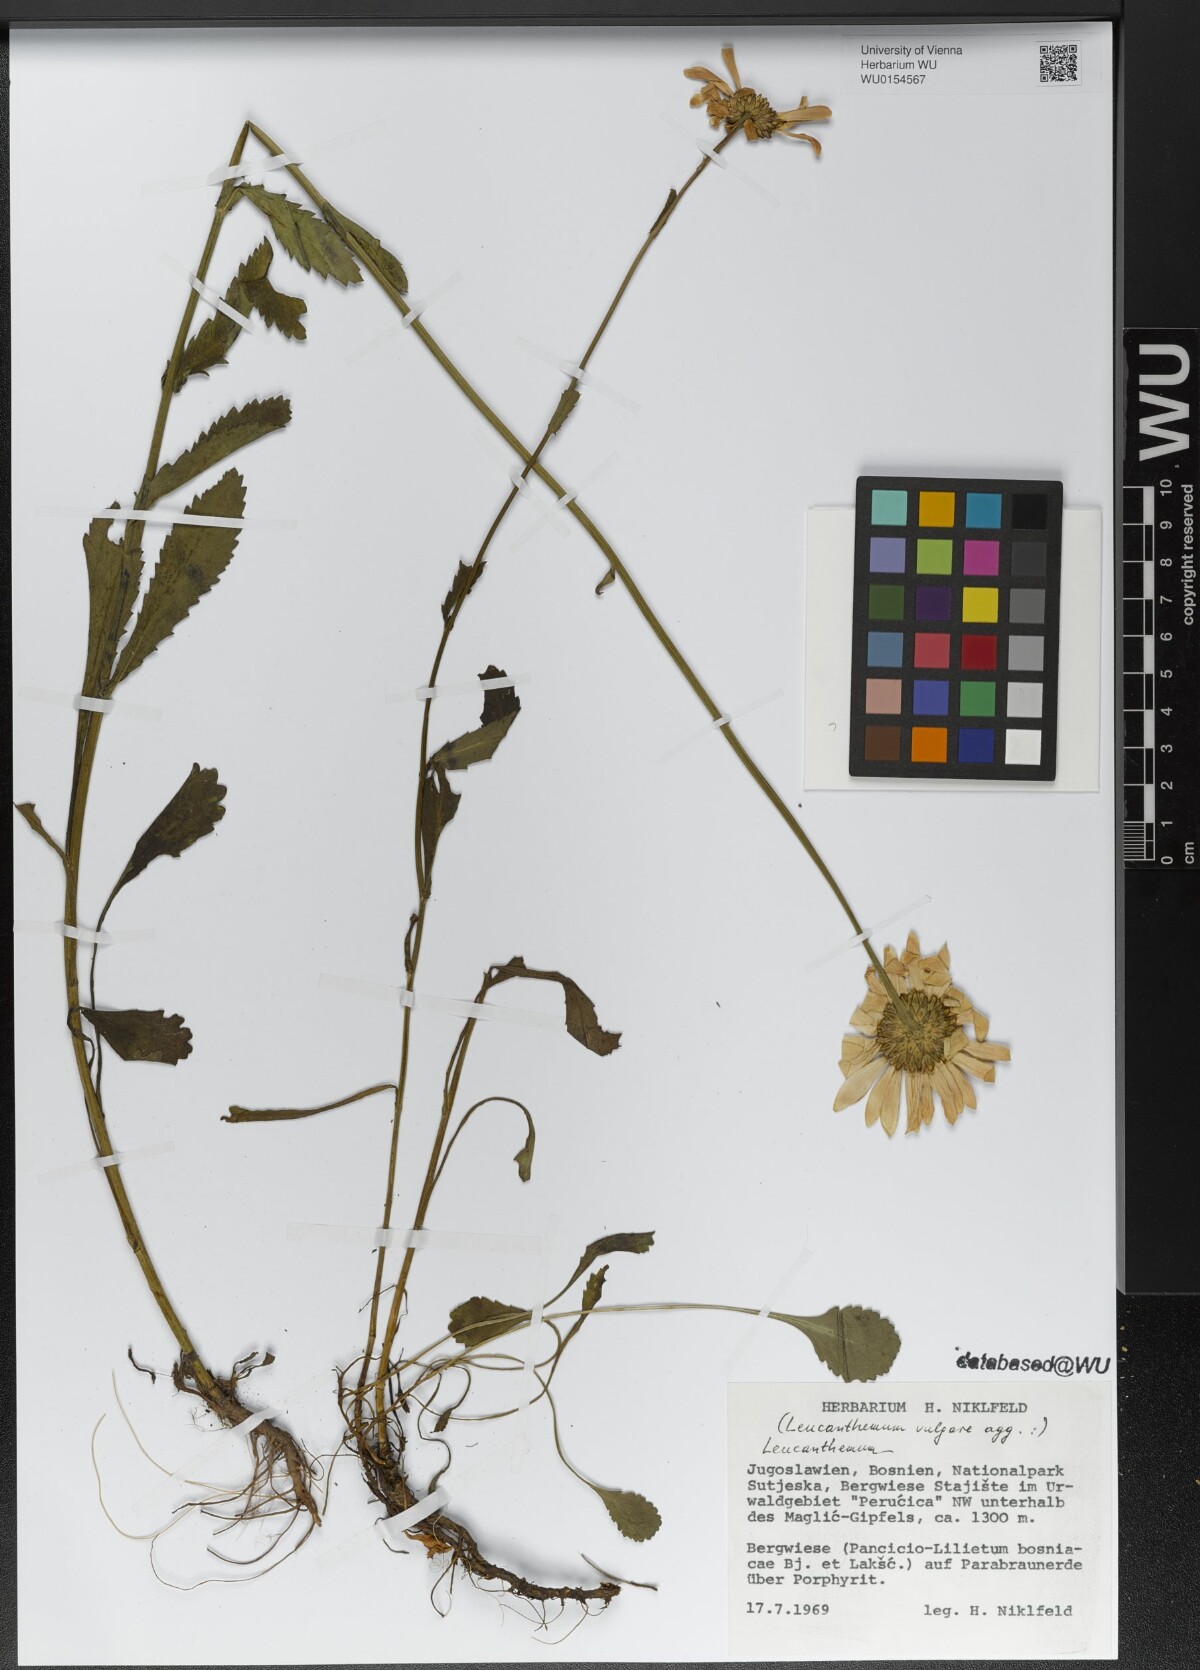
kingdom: Plantae
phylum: Tracheophyta
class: Magnoliopsida
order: Asterales
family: Asteraceae
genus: Leucanthemum
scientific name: Leucanthemum vulgare
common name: Oxeye daisy
